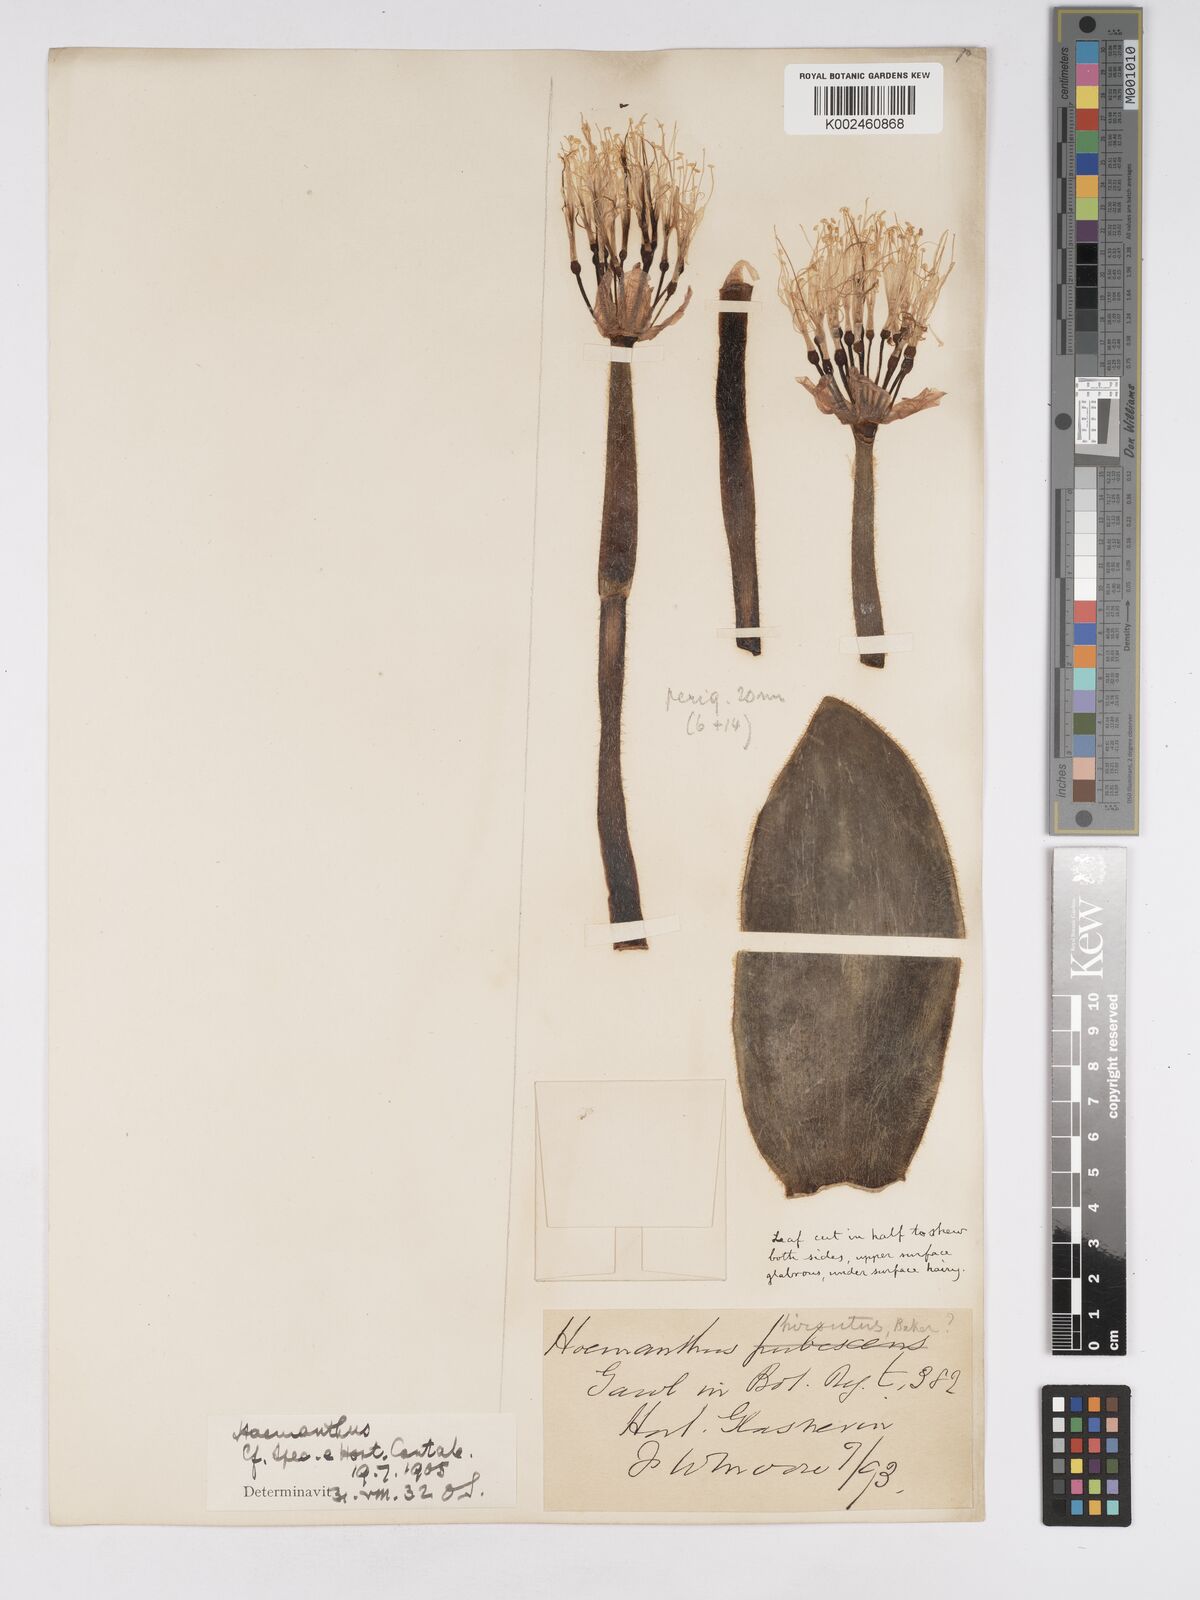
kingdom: Plantae
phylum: Tracheophyta
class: Liliopsida
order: Asparagales
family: Amaryllidaceae
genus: Haemanthus
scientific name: Haemanthus humilis
